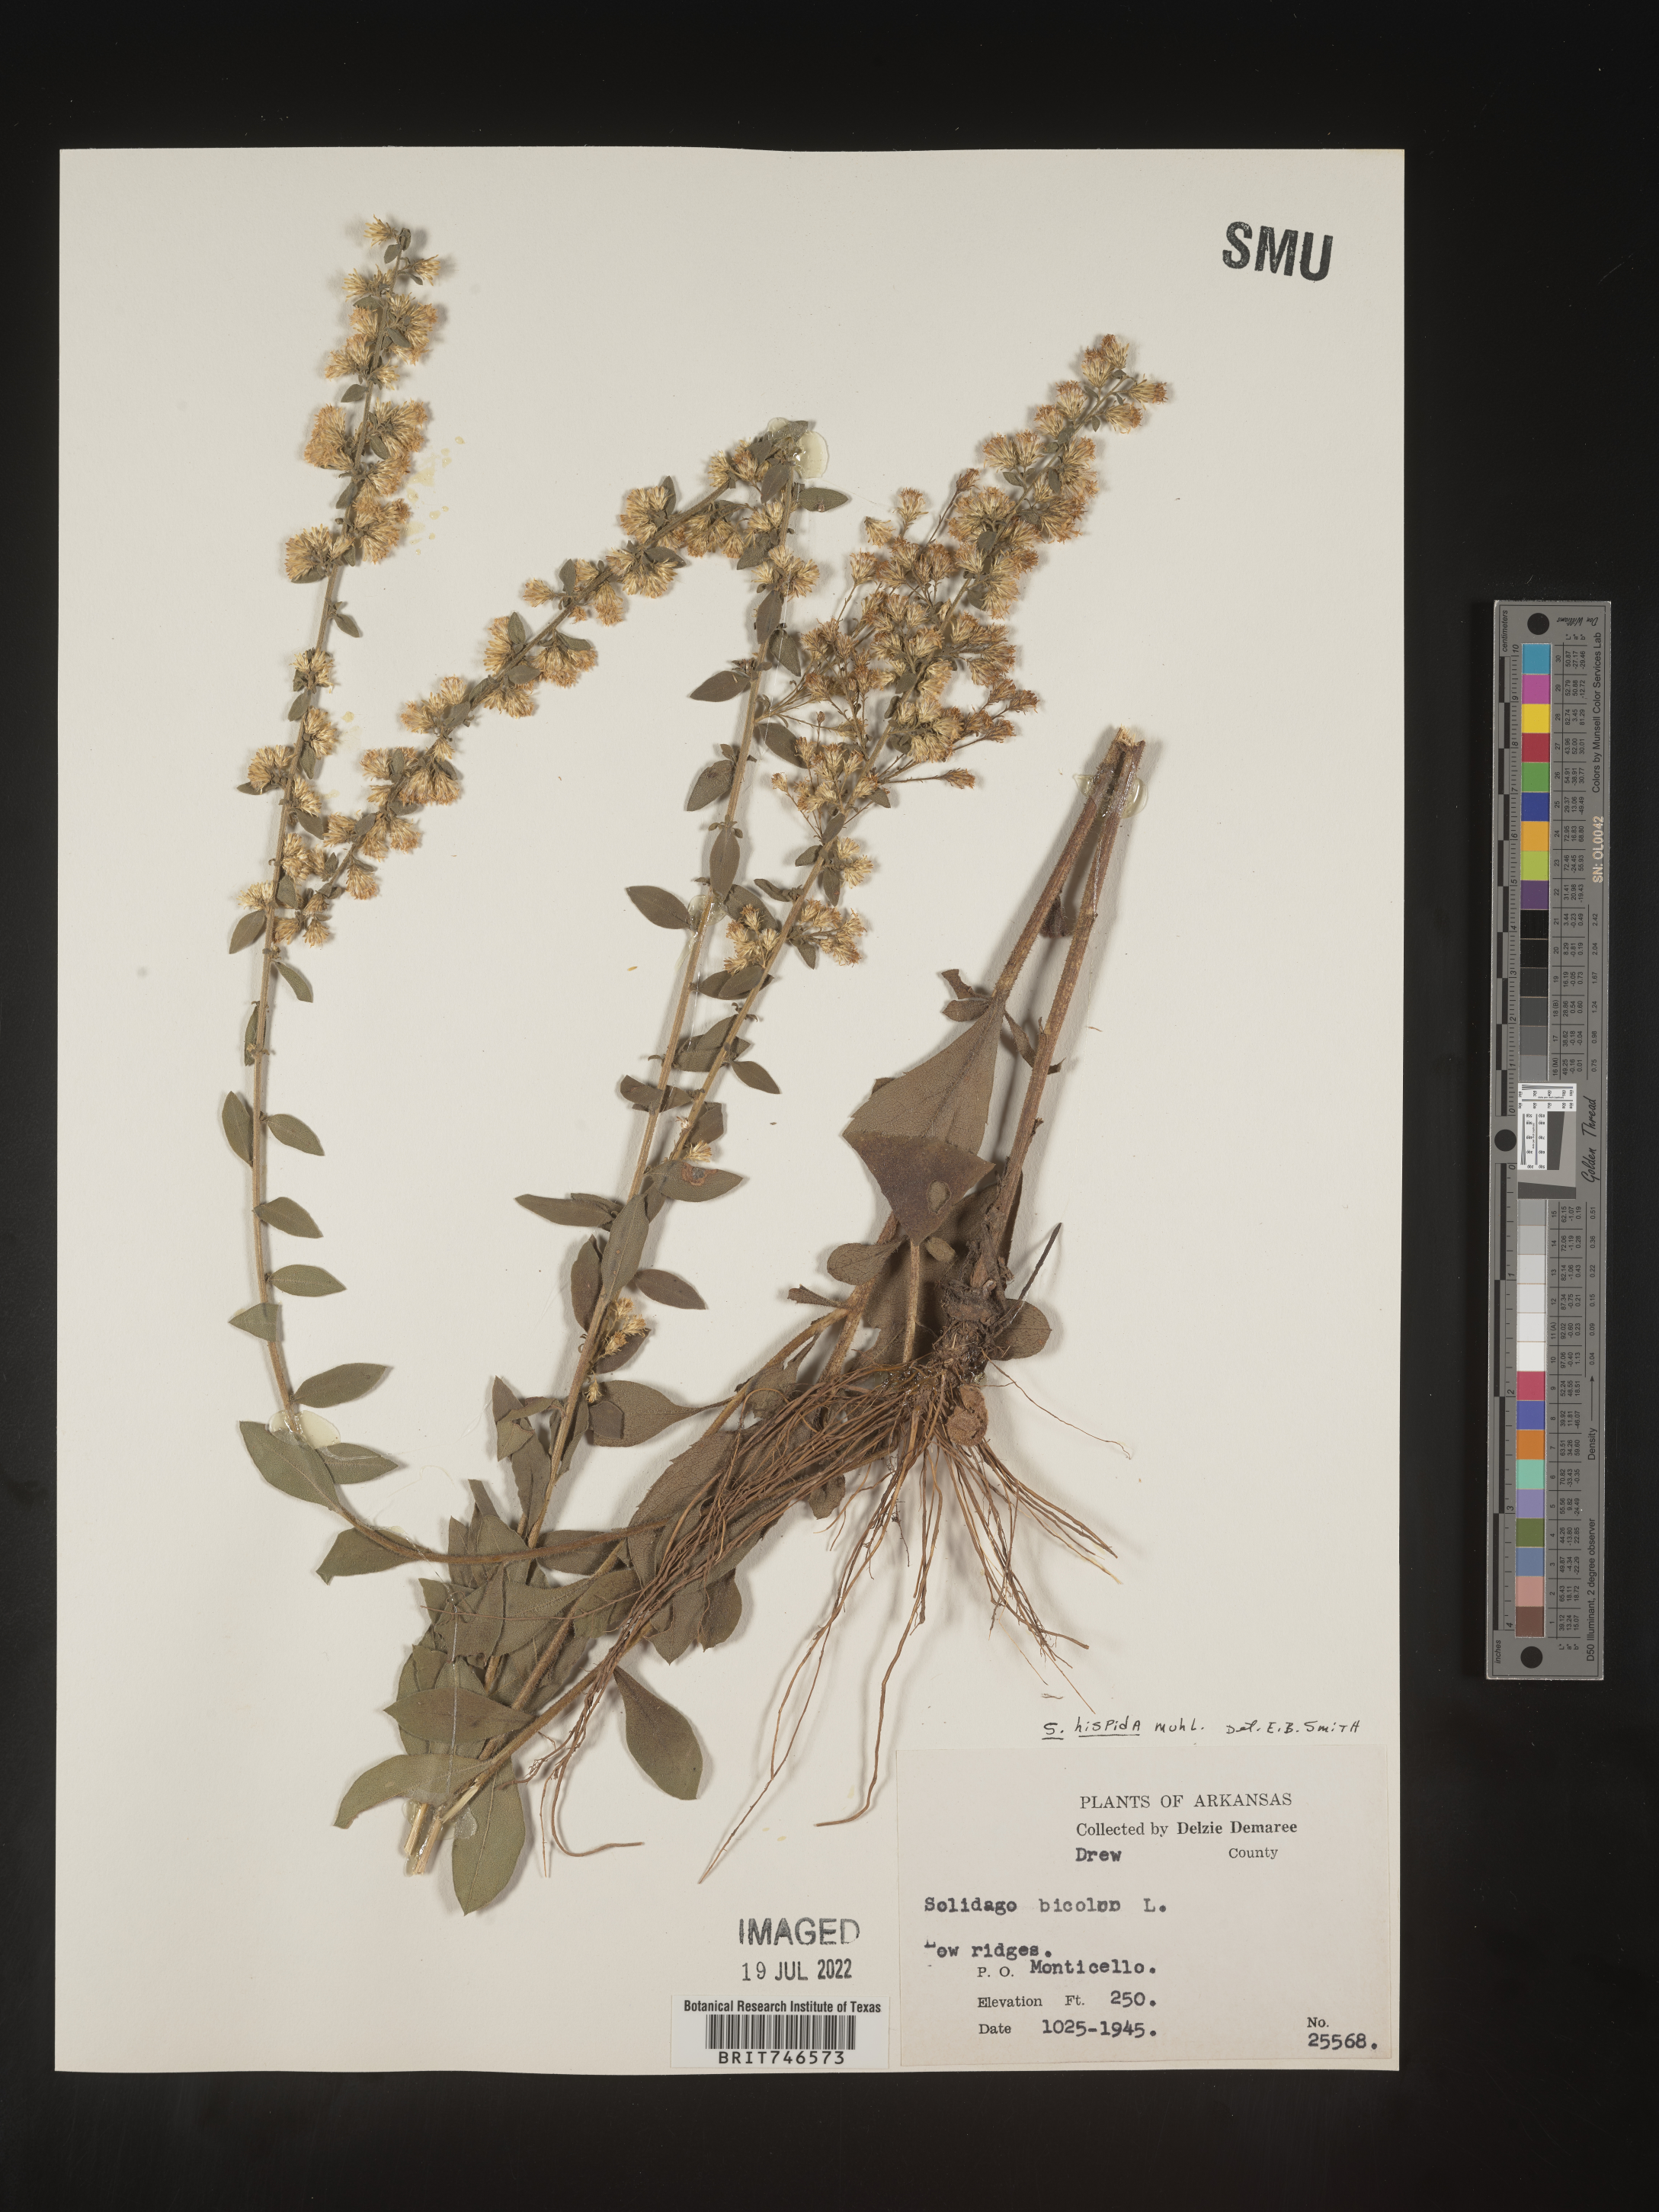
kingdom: Plantae
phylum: Tracheophyta
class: Magnoliopsida
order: Asterales
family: Asteraceae
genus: Solidago
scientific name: Solidago hispida
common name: Hairy goldenrod
